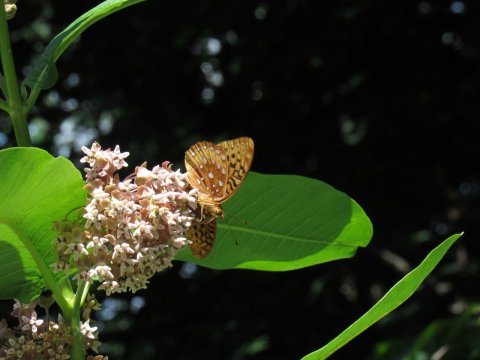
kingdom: Animalia
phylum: Arthropoda
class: Insecta
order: Lepidoptera
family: Nymphalidae
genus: Speyeria
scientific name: Speyeria cybele
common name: Great Spangled Fritillary
